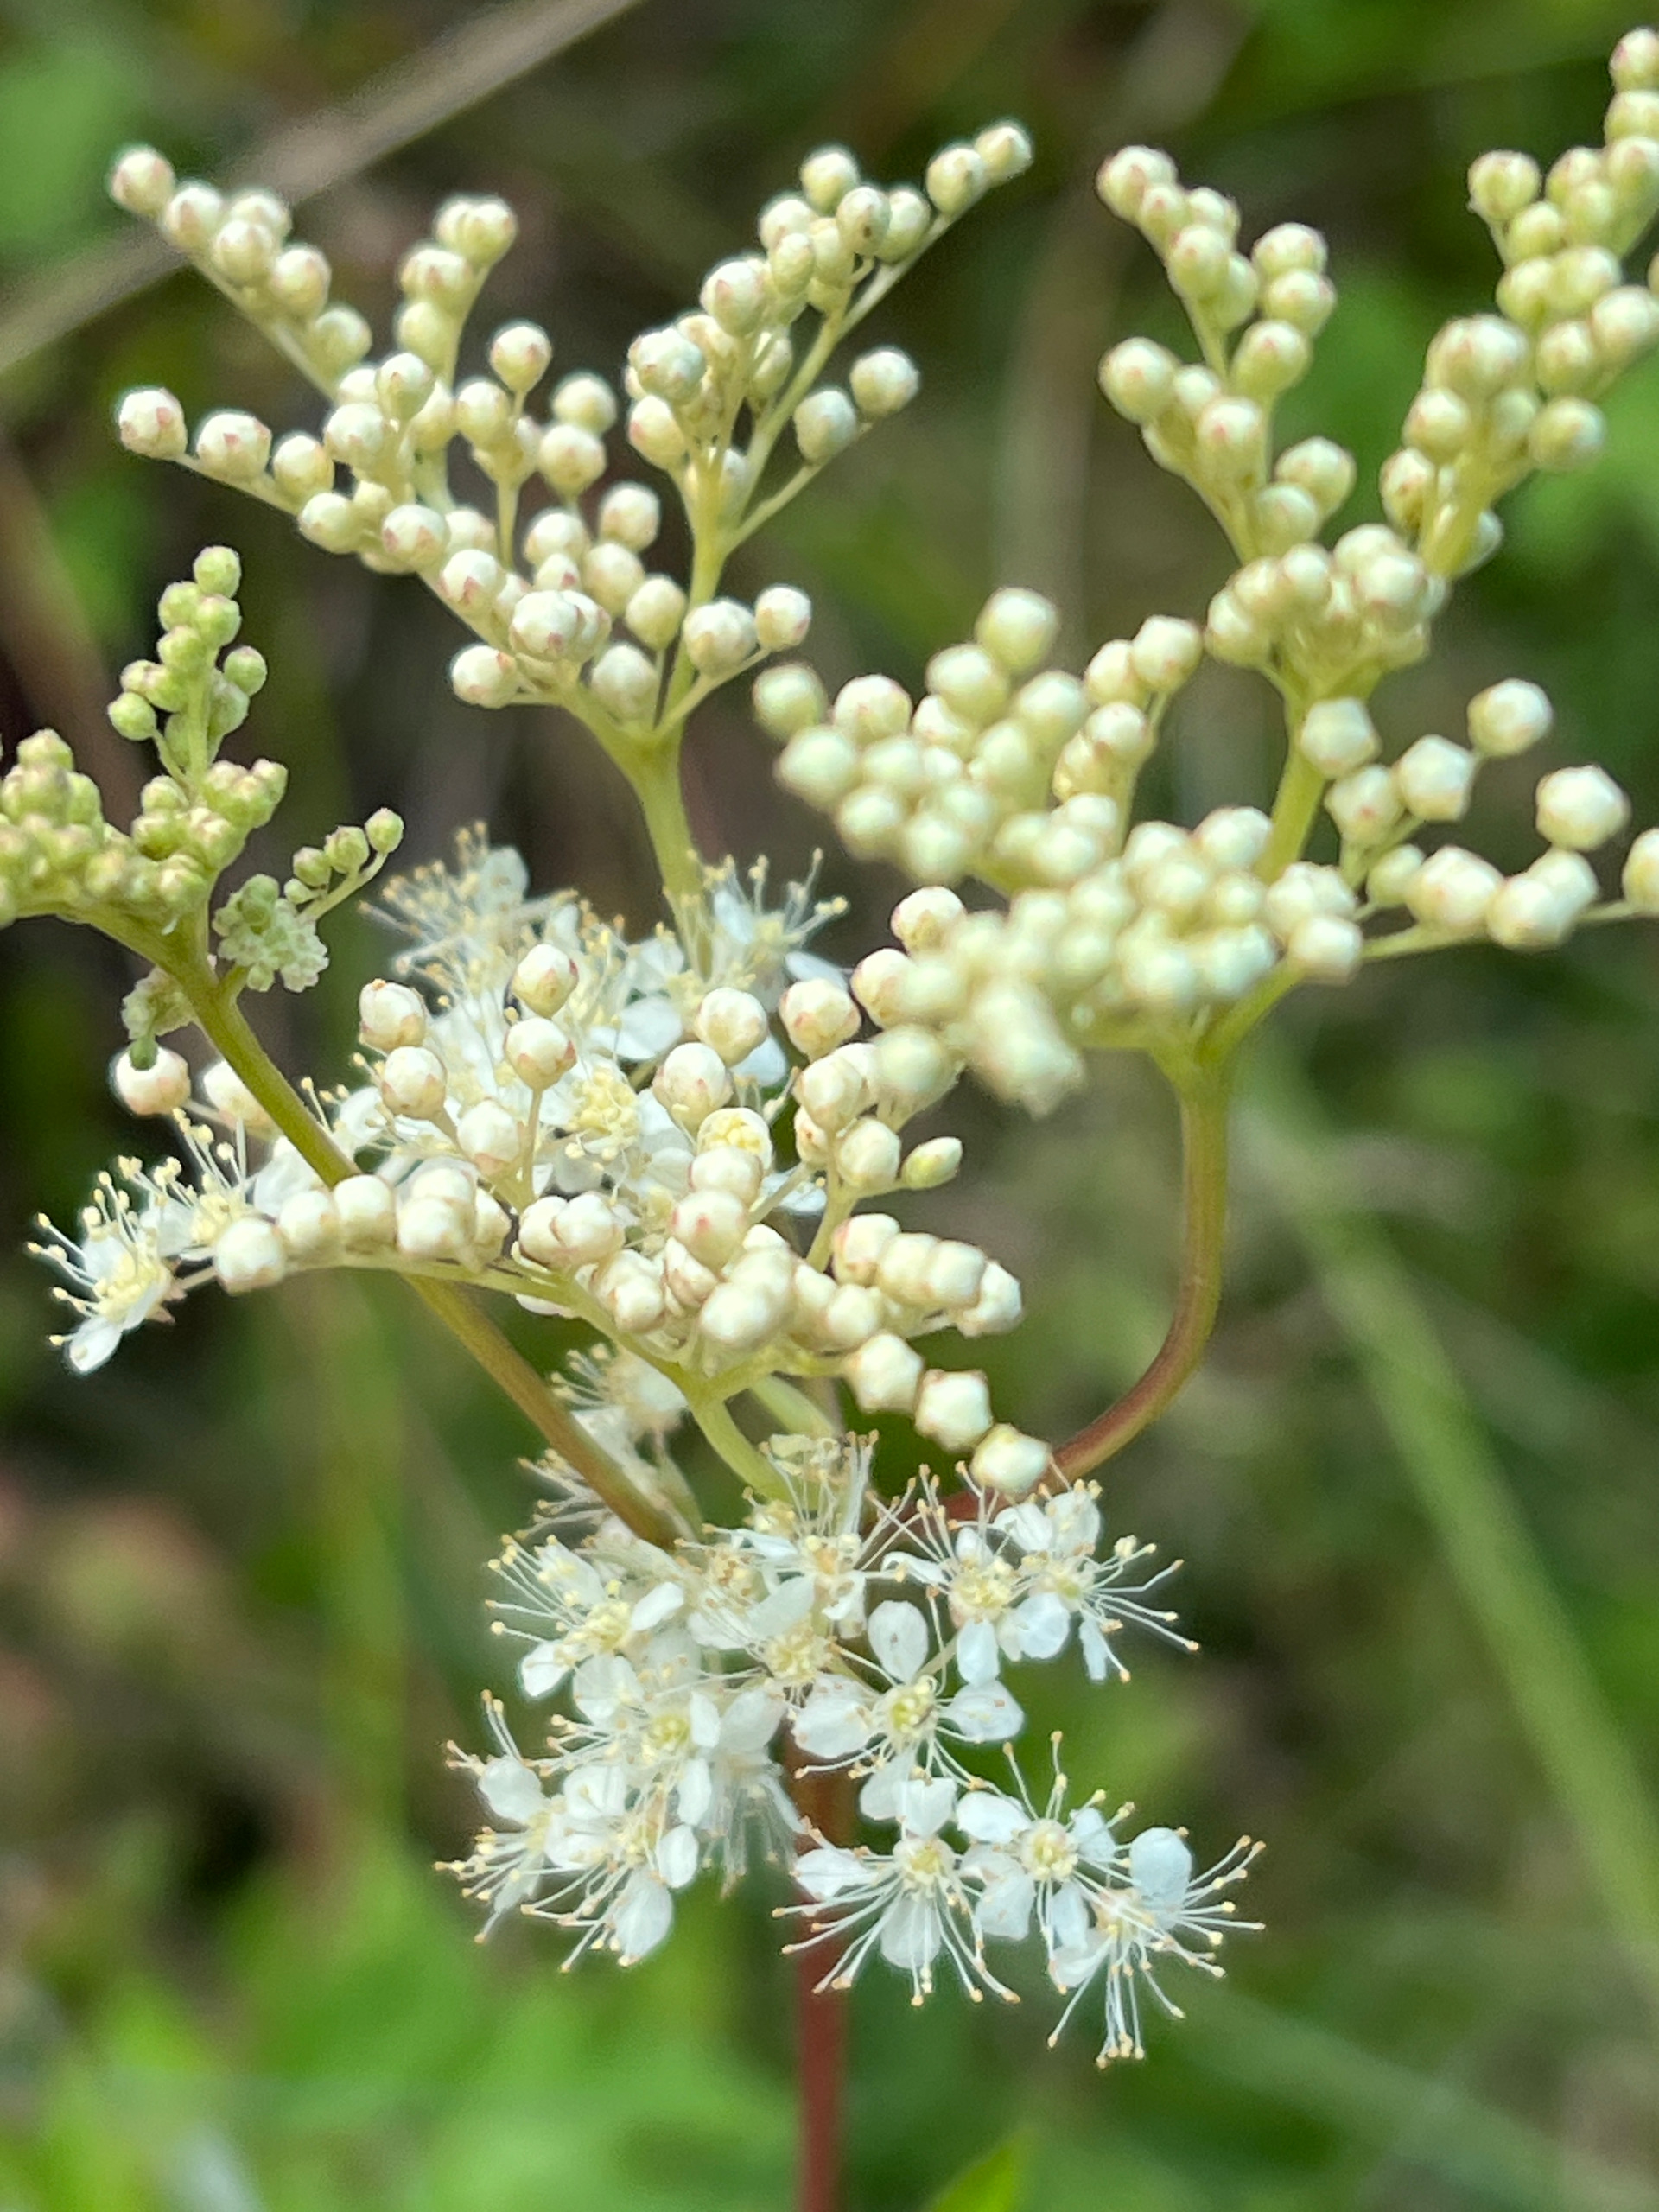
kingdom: Plantae
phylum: Tracheophyta
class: Magnoliopsida
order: Rosales
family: Rosaceae
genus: Filipendula
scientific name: Filipendula ulmaria
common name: Almindelig mjødurt
